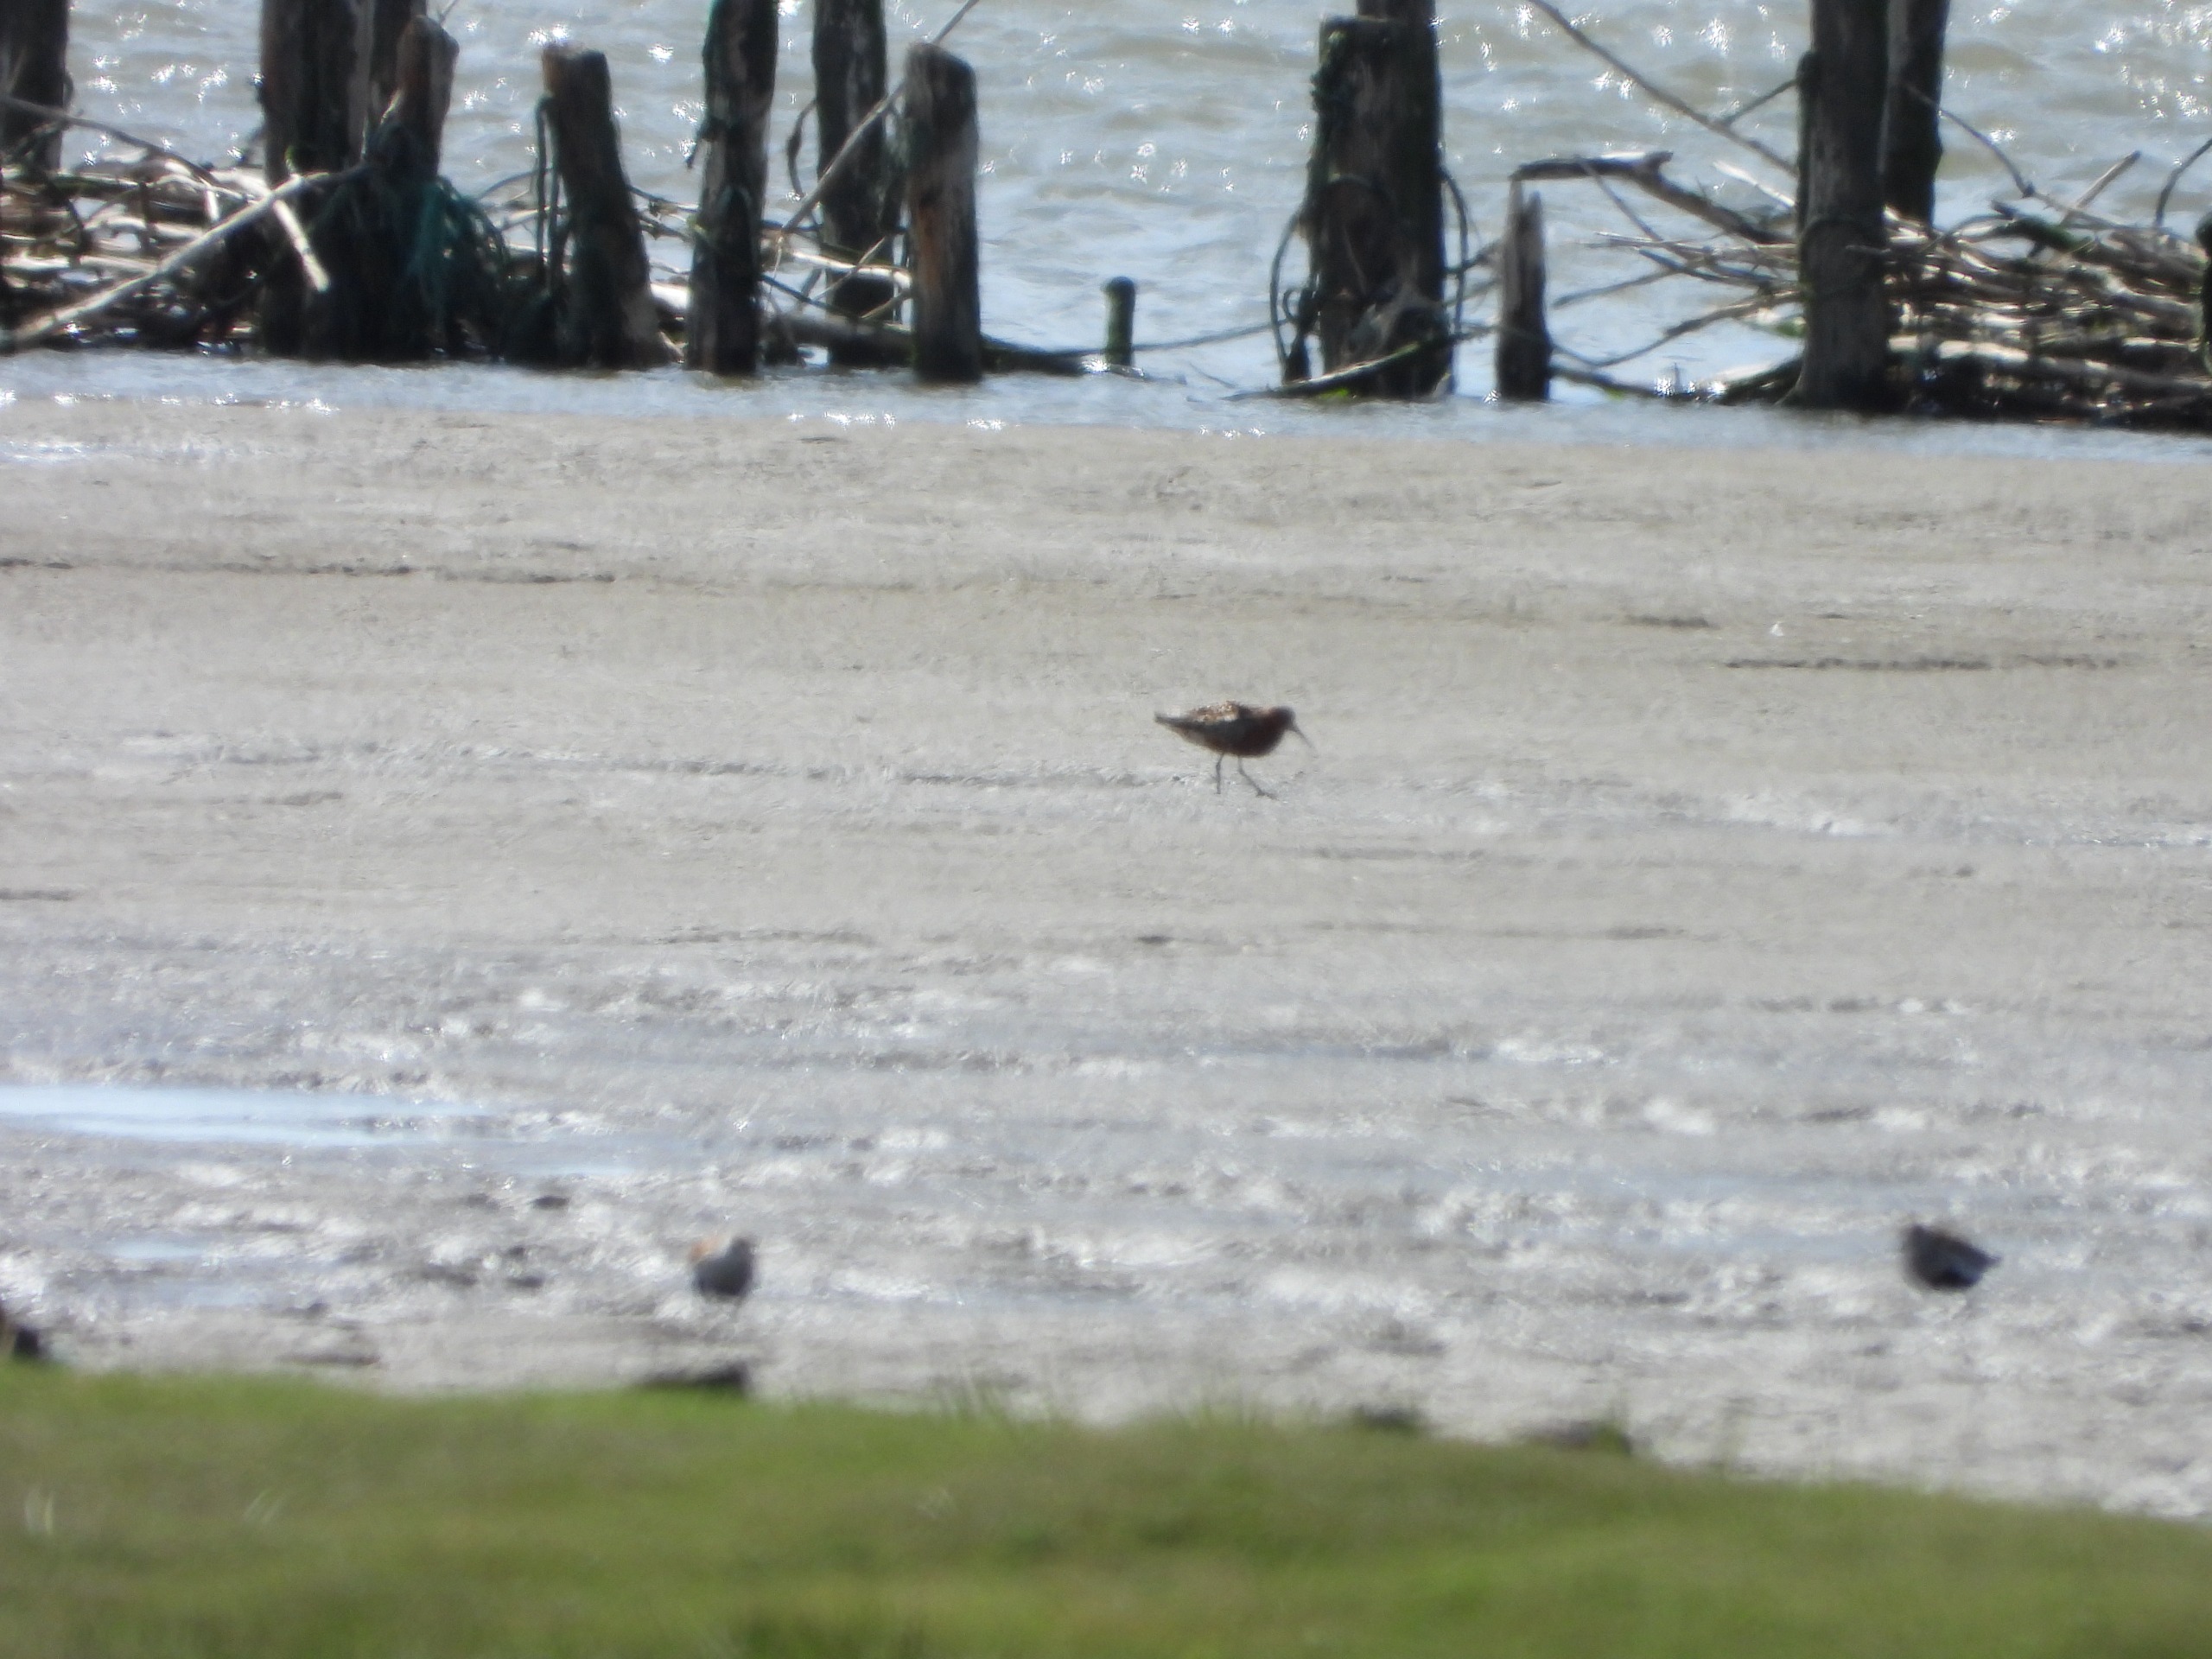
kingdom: Animalia
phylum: Chordata
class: Aves
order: Charadriiformes
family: Scolopacidae
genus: Calidris
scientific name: Calidris ferruginea
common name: Krumnæbbet ryle
